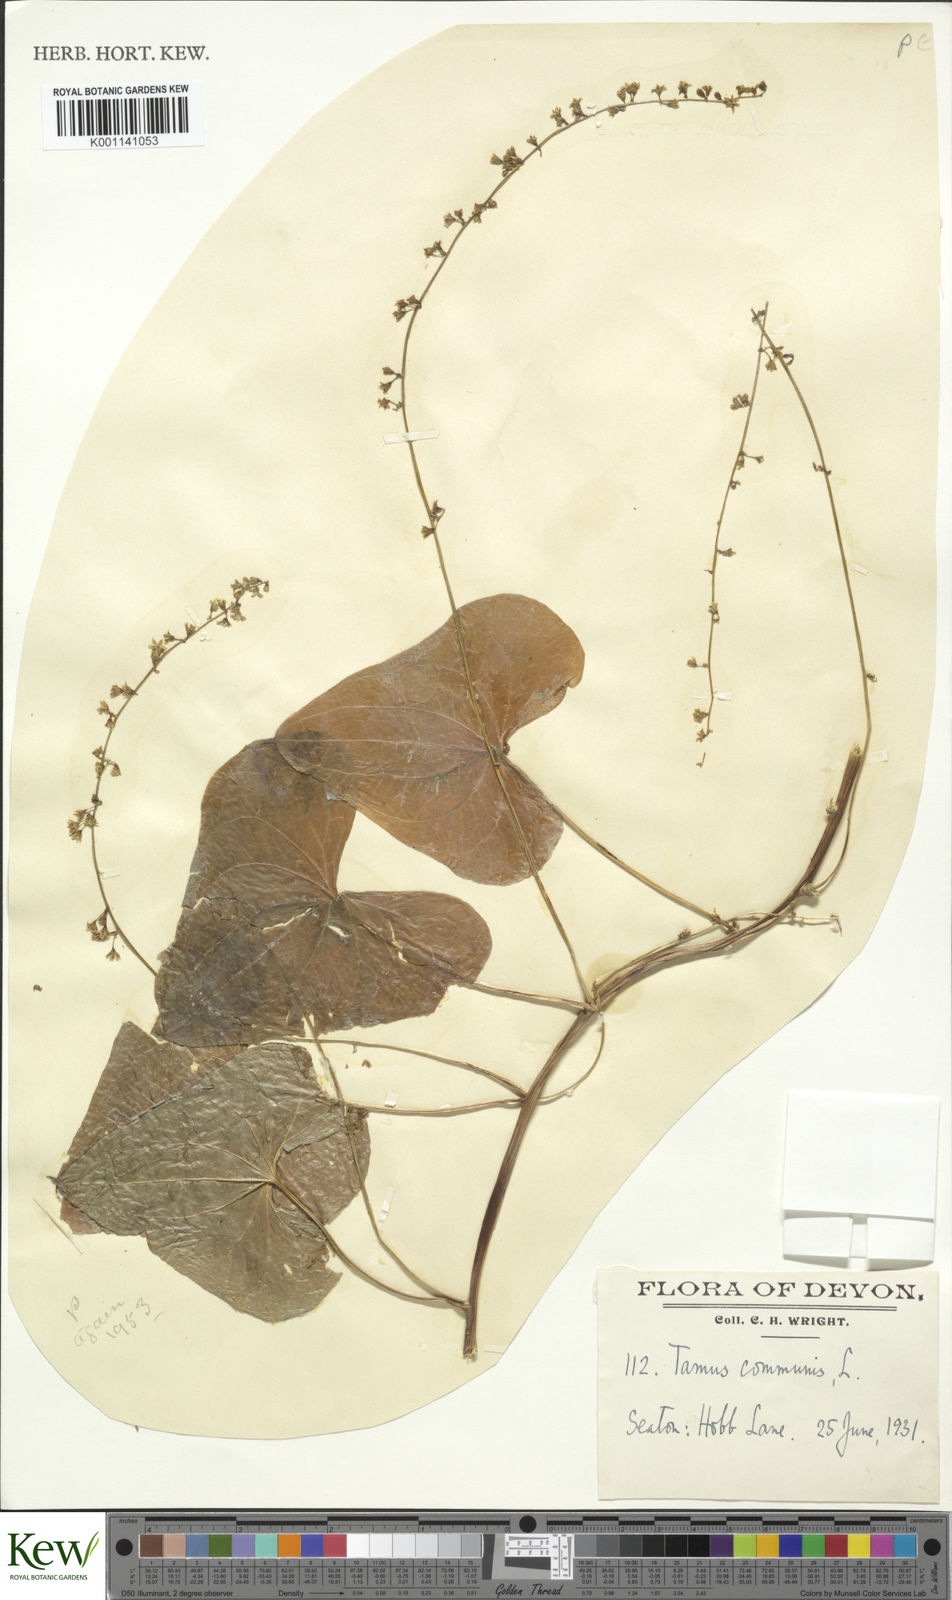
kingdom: Plantae
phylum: Tracheophyta
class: Liliopsida
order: Dioscoreales
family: Dioscoreaceae
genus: Dioscorea
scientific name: Dioscorea communis
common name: Black-bindweed
